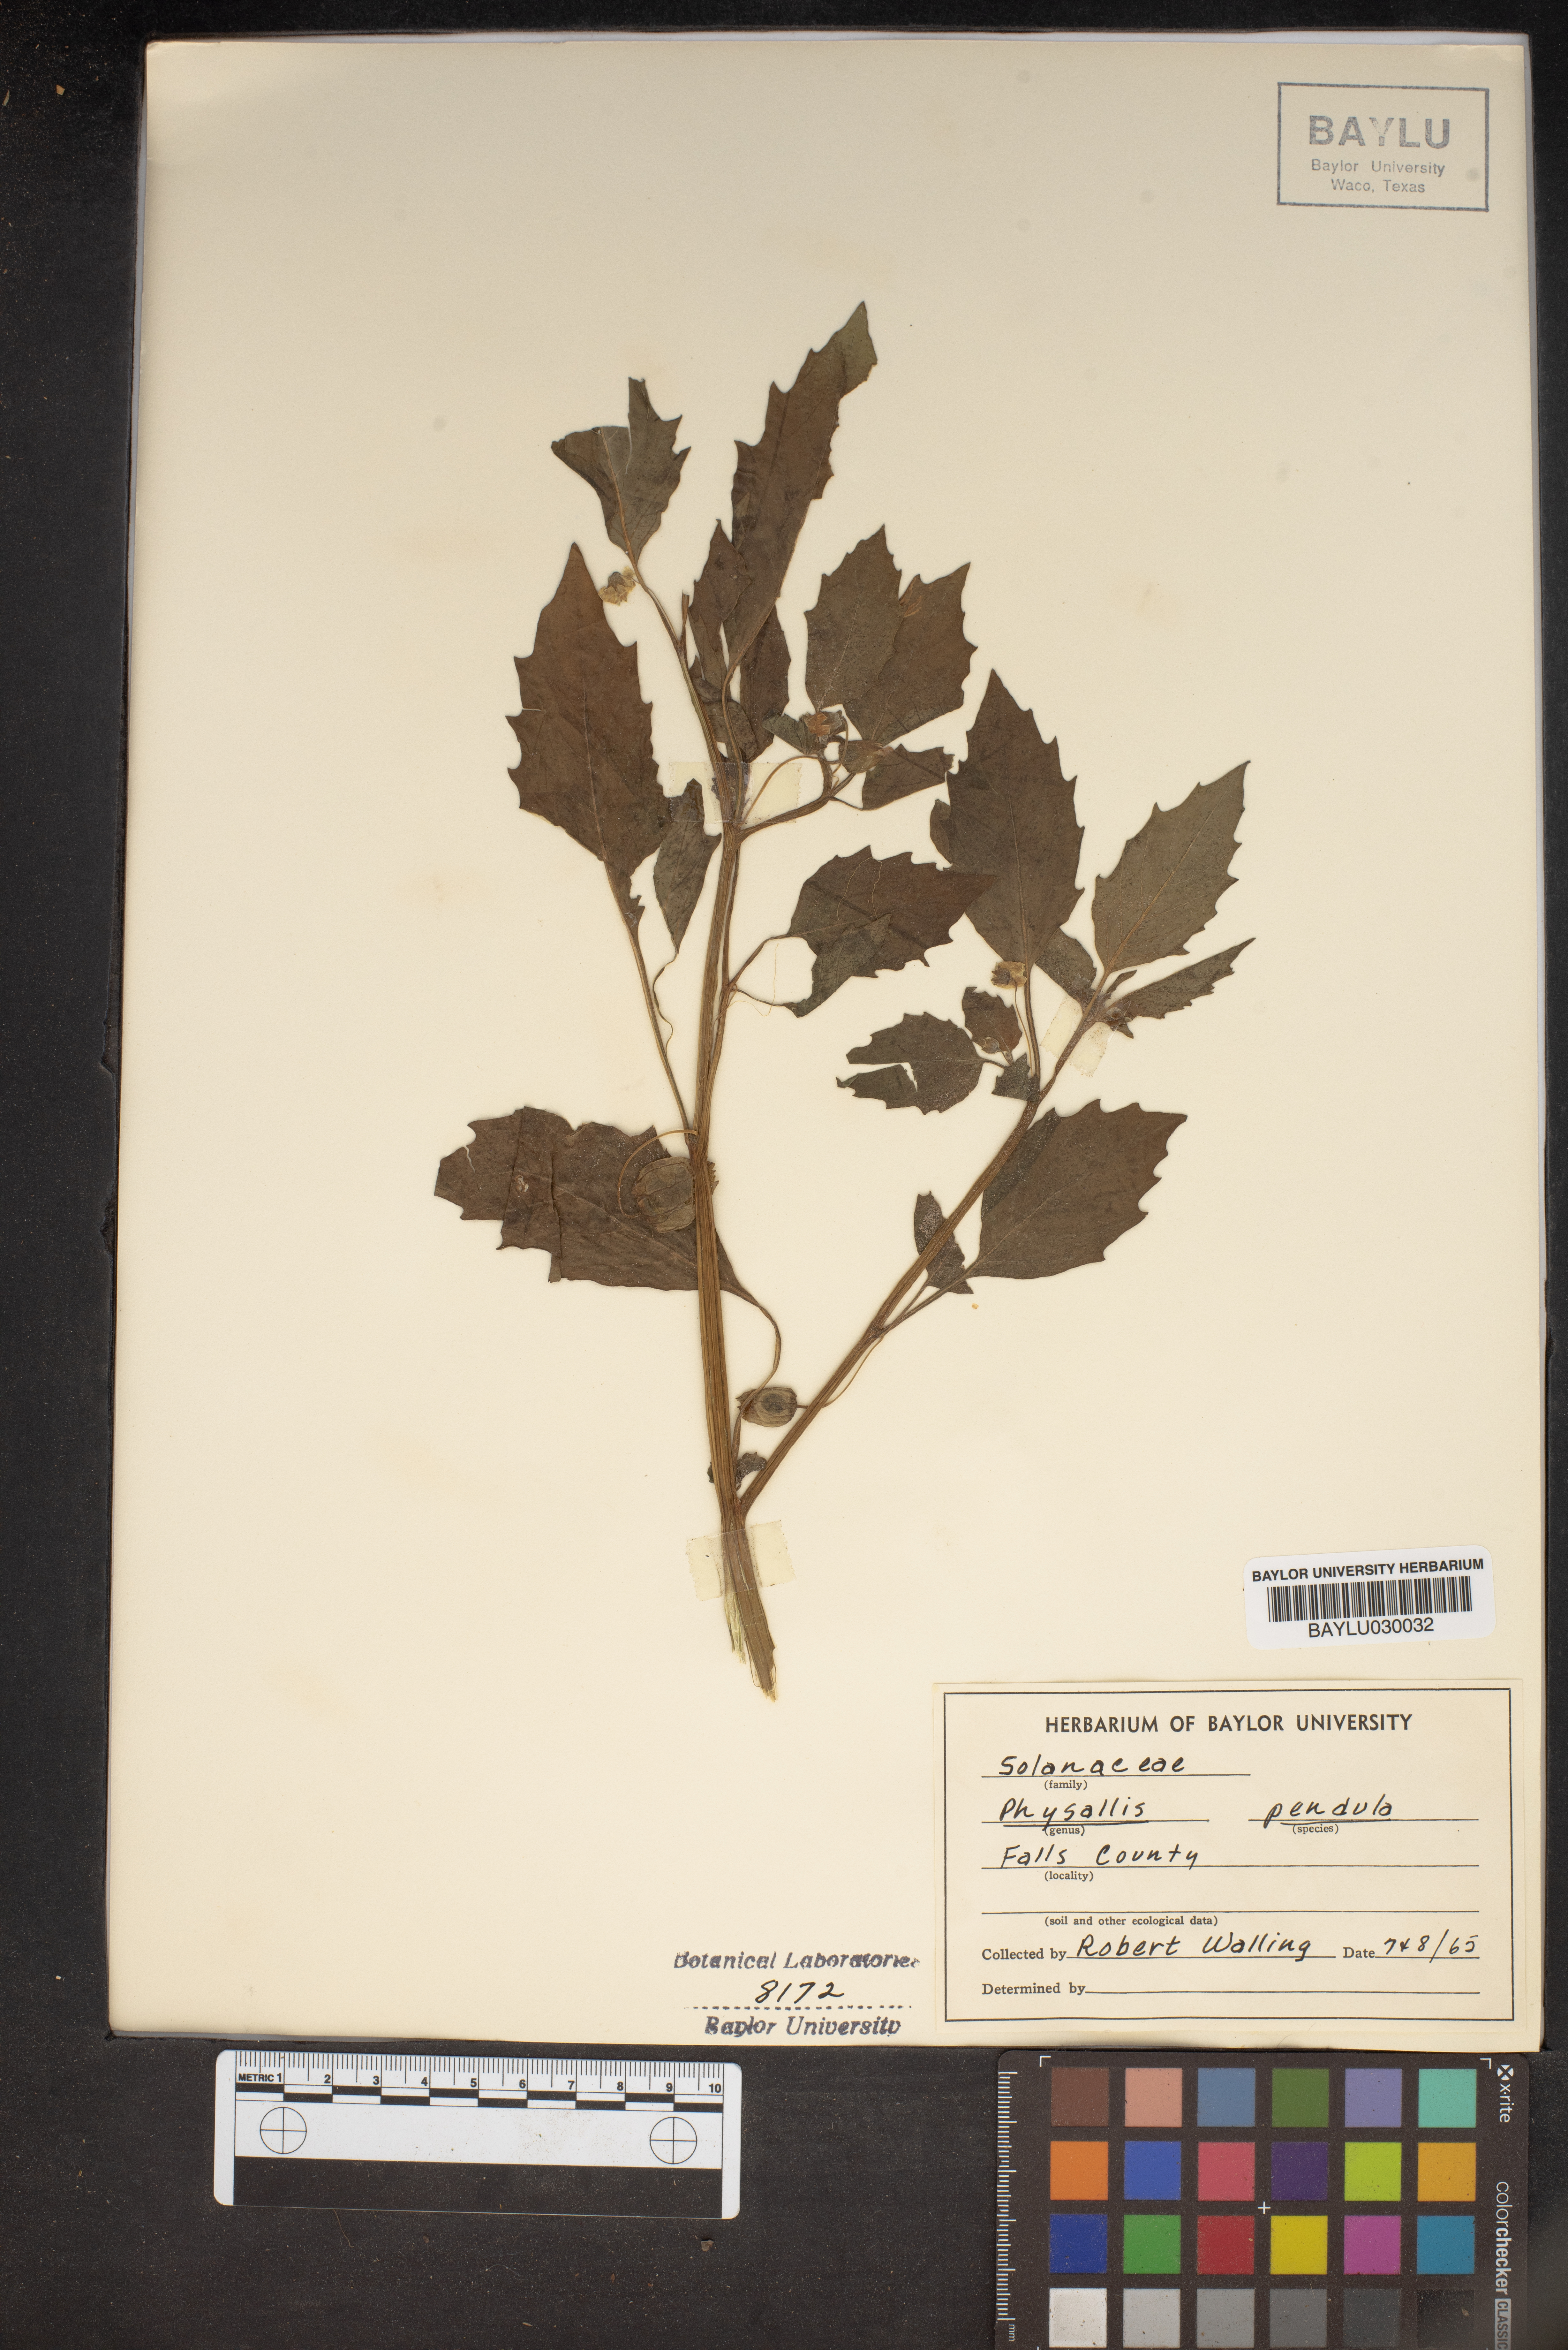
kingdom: Plantae
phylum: Tracheophyta
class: Magnoliopsida
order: Solanales
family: Solanaceae
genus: Physalis
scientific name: Physalis angulata
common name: Angular winter-cherry
